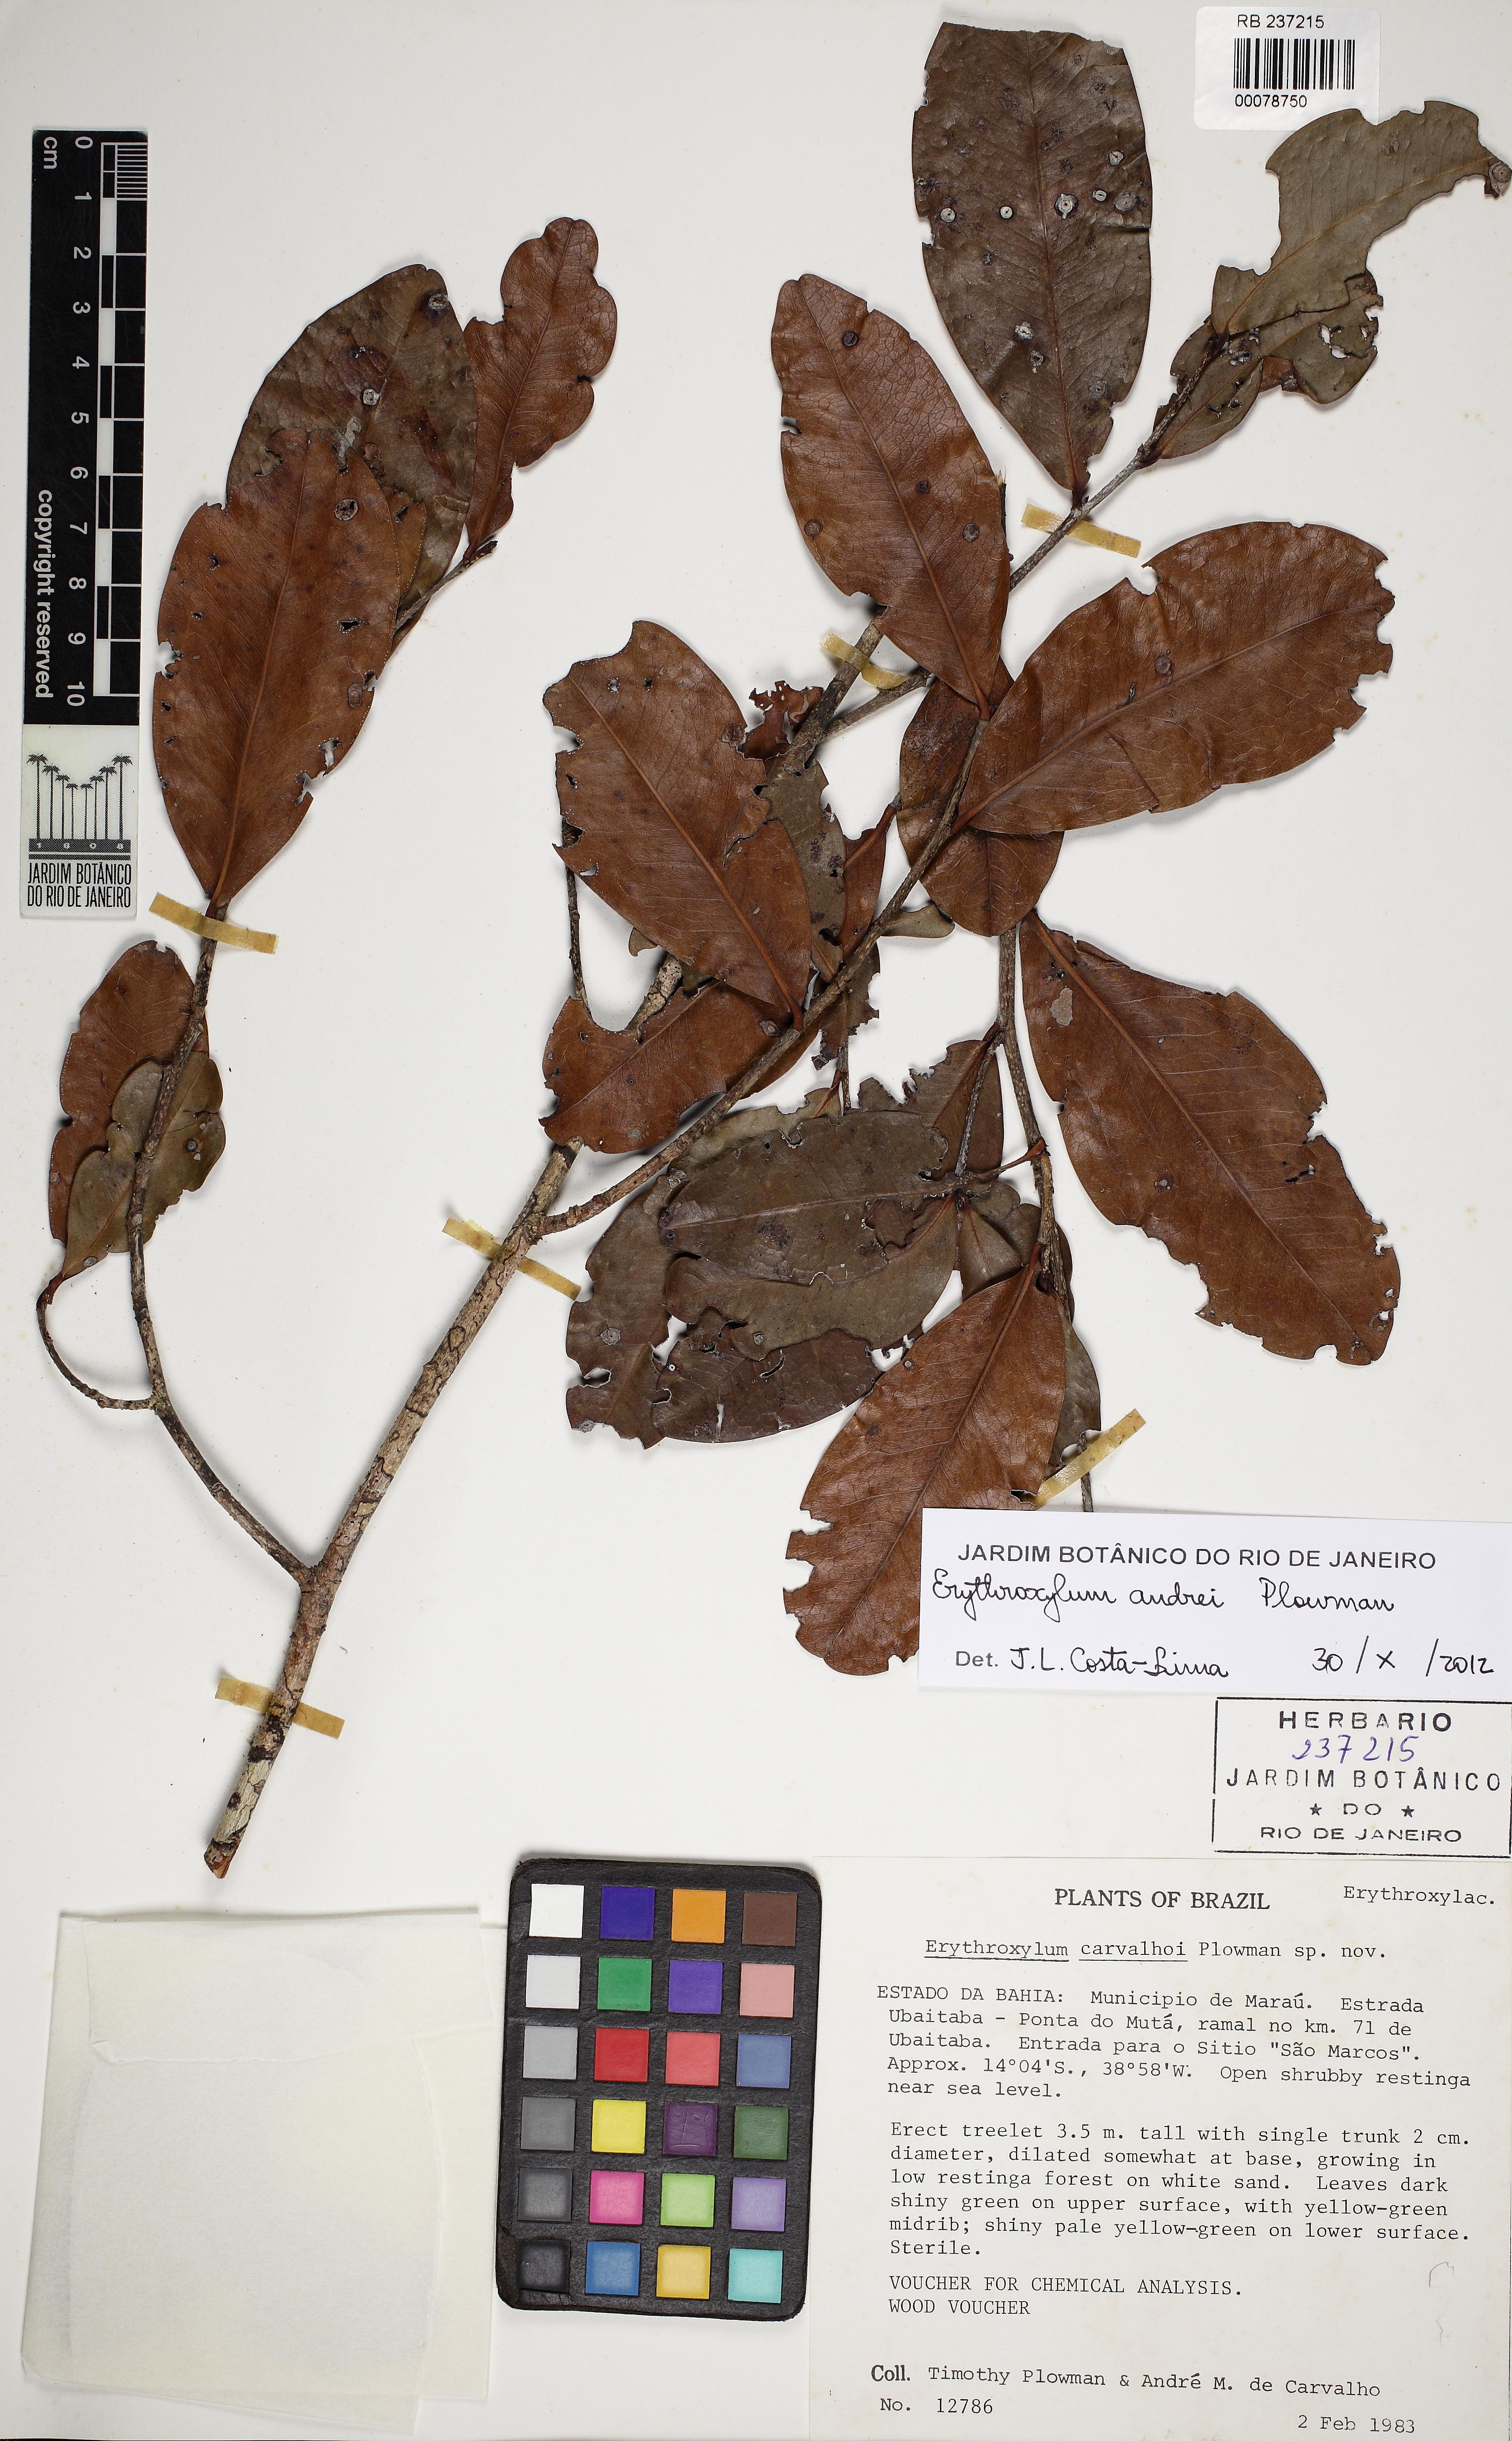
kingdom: Plantae
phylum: Tracheophyta
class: Magnoliopsida
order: Malpighiales
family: Erythroxylaceae
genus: Erythroxylum
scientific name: Erythroxylum andrei
